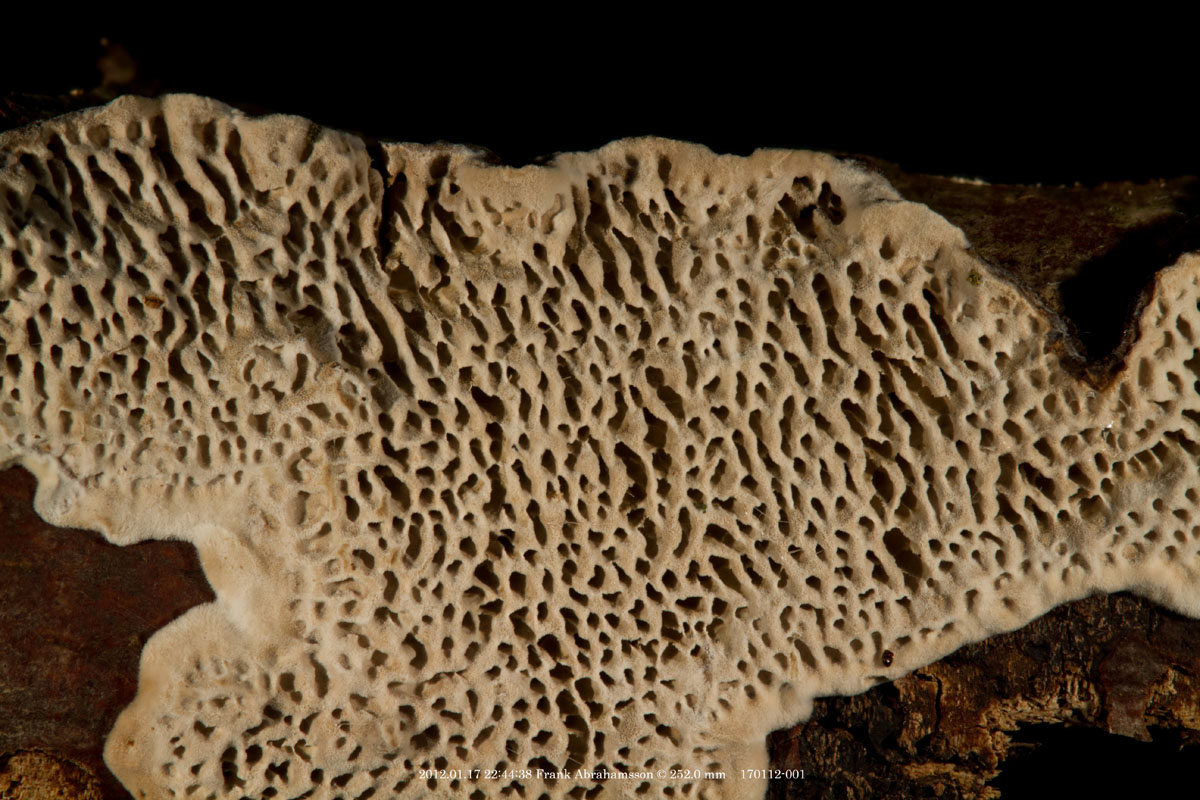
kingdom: Fungi
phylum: Basidiomycota
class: Agaricomycetes
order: Polyporales
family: Polyporaceae
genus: Podofomes
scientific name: Podofomes mollis
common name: blød begporesvamp
